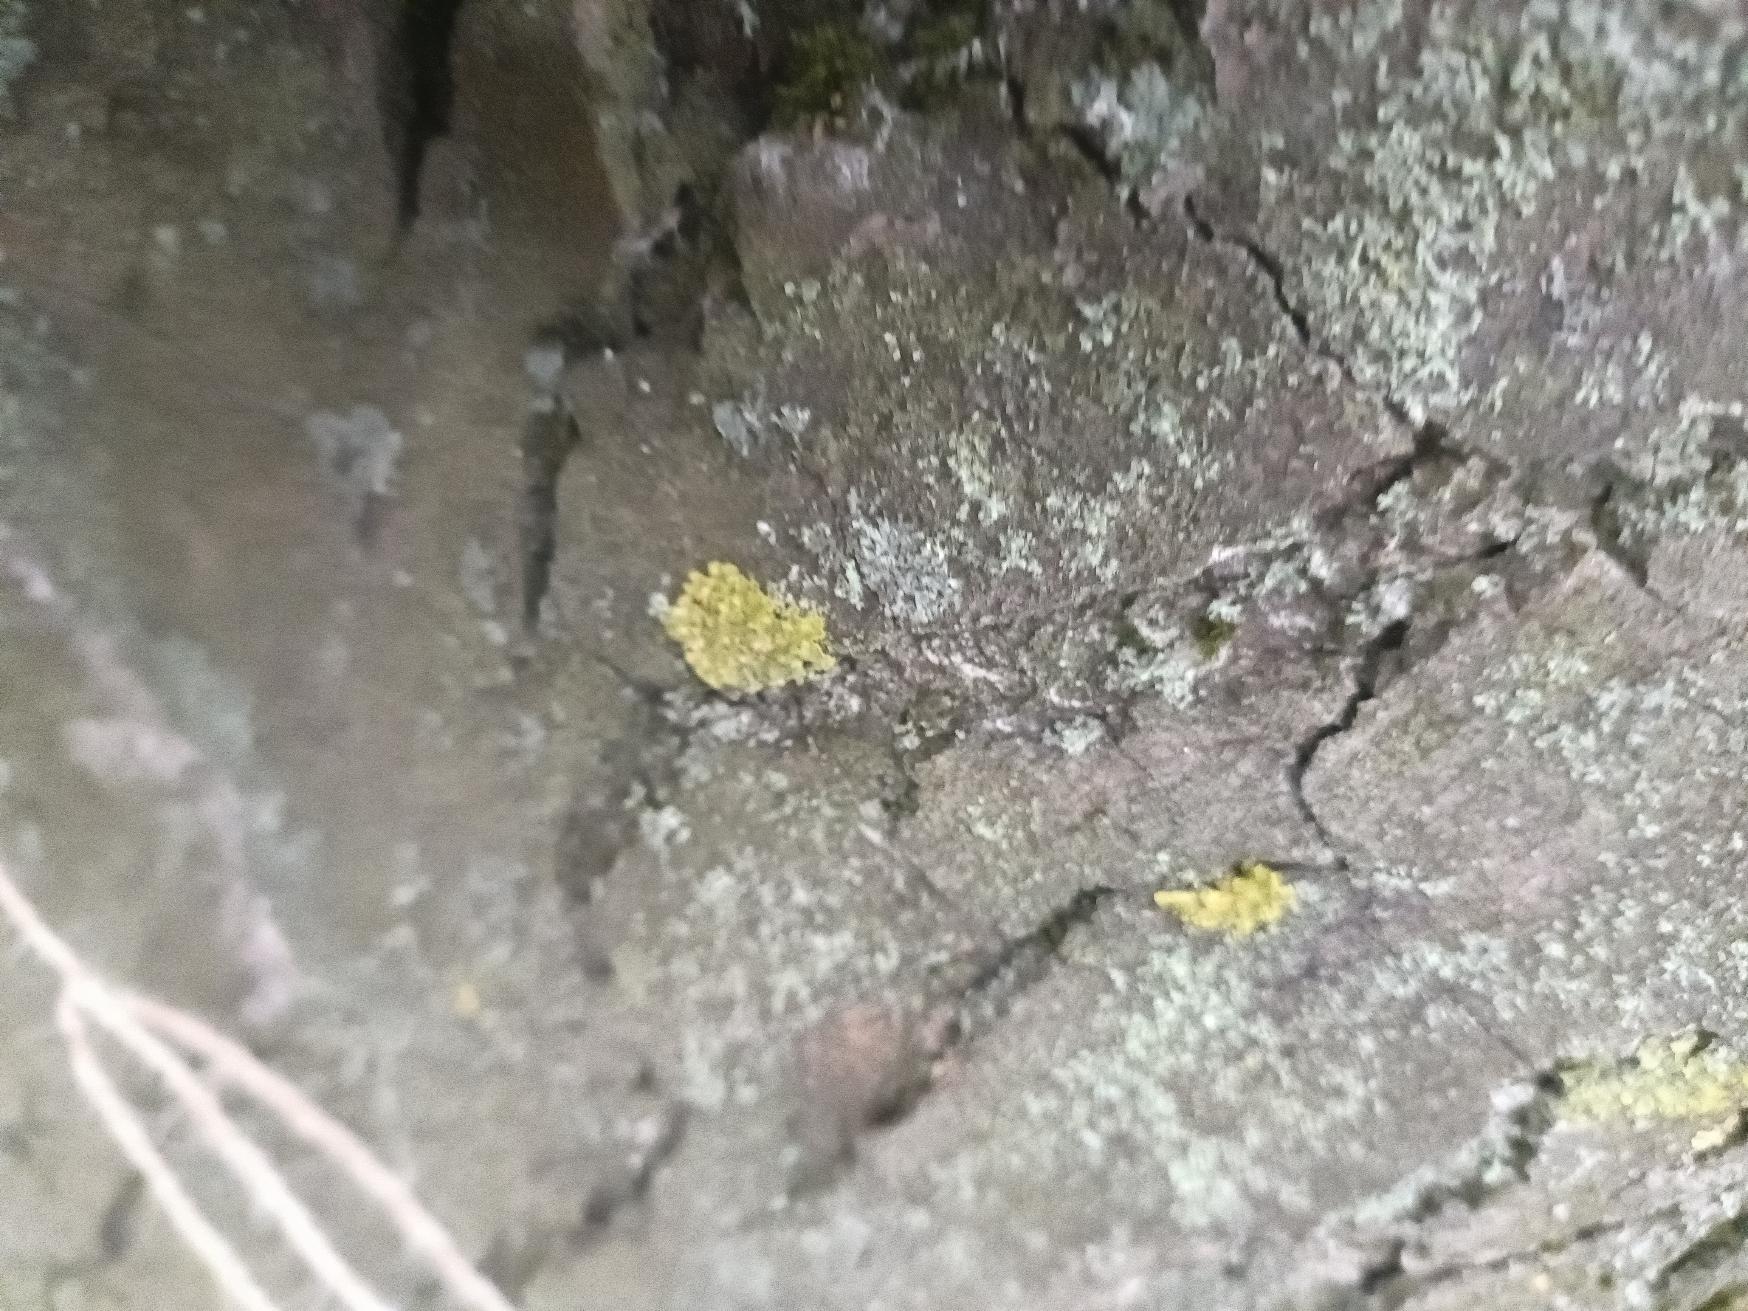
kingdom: Fungi
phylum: Ascomycota
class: Lecanoromycetes
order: Teloschistales
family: Teloschistaceae
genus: Xanthoria
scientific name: Xanthoria parietina
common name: Almindelig væggelav
